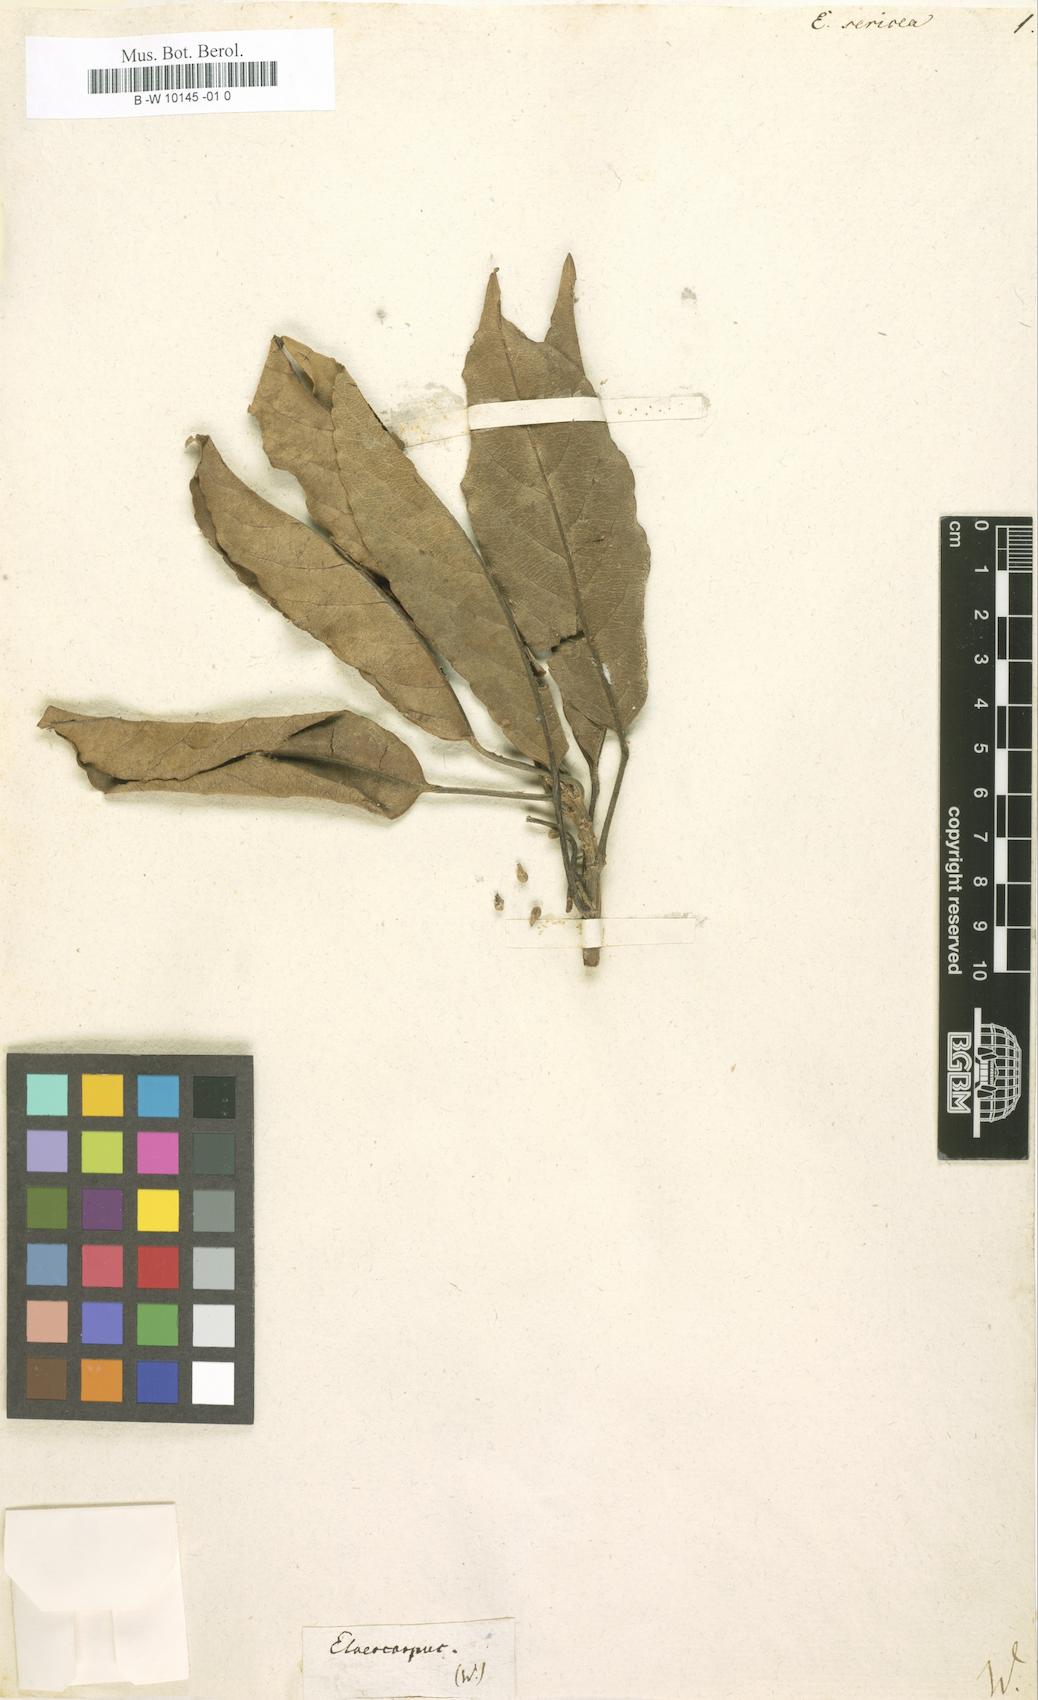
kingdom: Plantae
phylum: Tracheophyta
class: Magnoliopsida
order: Oxalidales
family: Elaeocarpaceae
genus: Elaeocarpus
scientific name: Elaeocarpus
